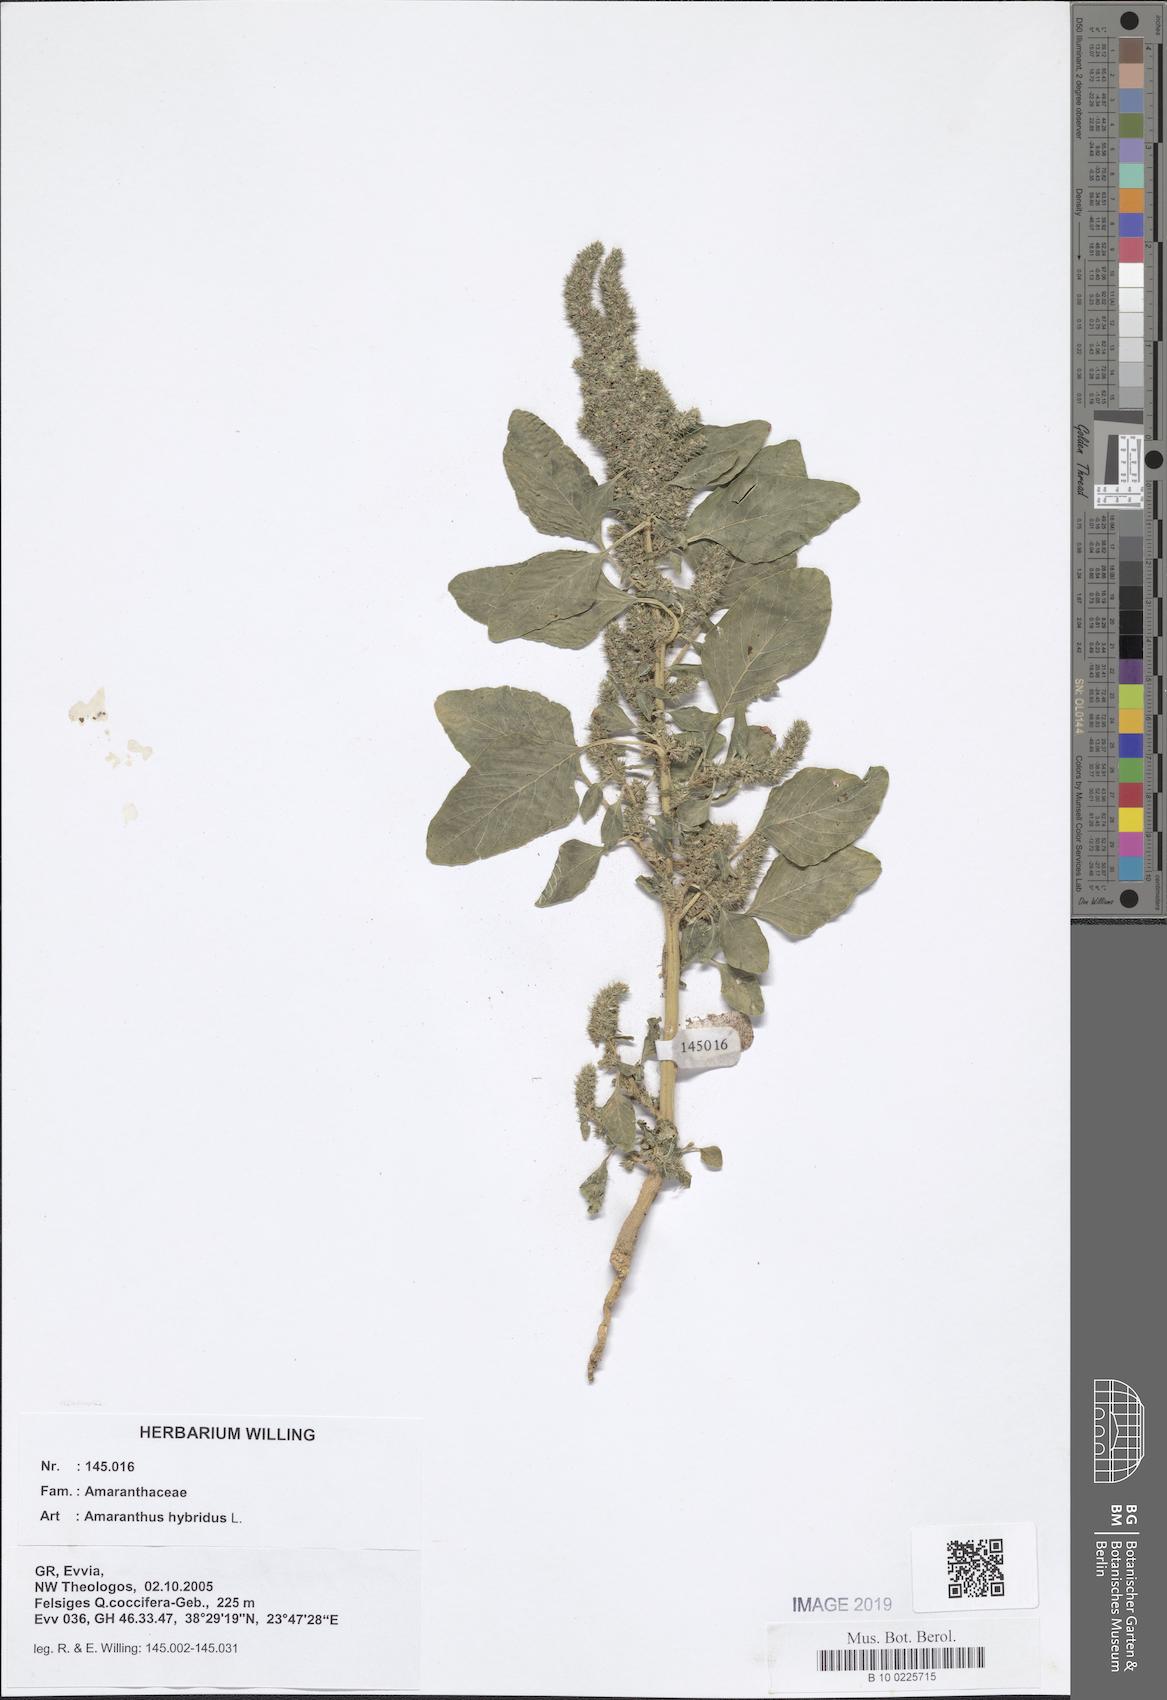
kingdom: Plantae
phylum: Tracheophyta
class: Magnoliopsida
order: Caryophyllales
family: Amaranthaceae
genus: Amaranthus
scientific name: Amaranthus hybridus
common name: Green amaranth
